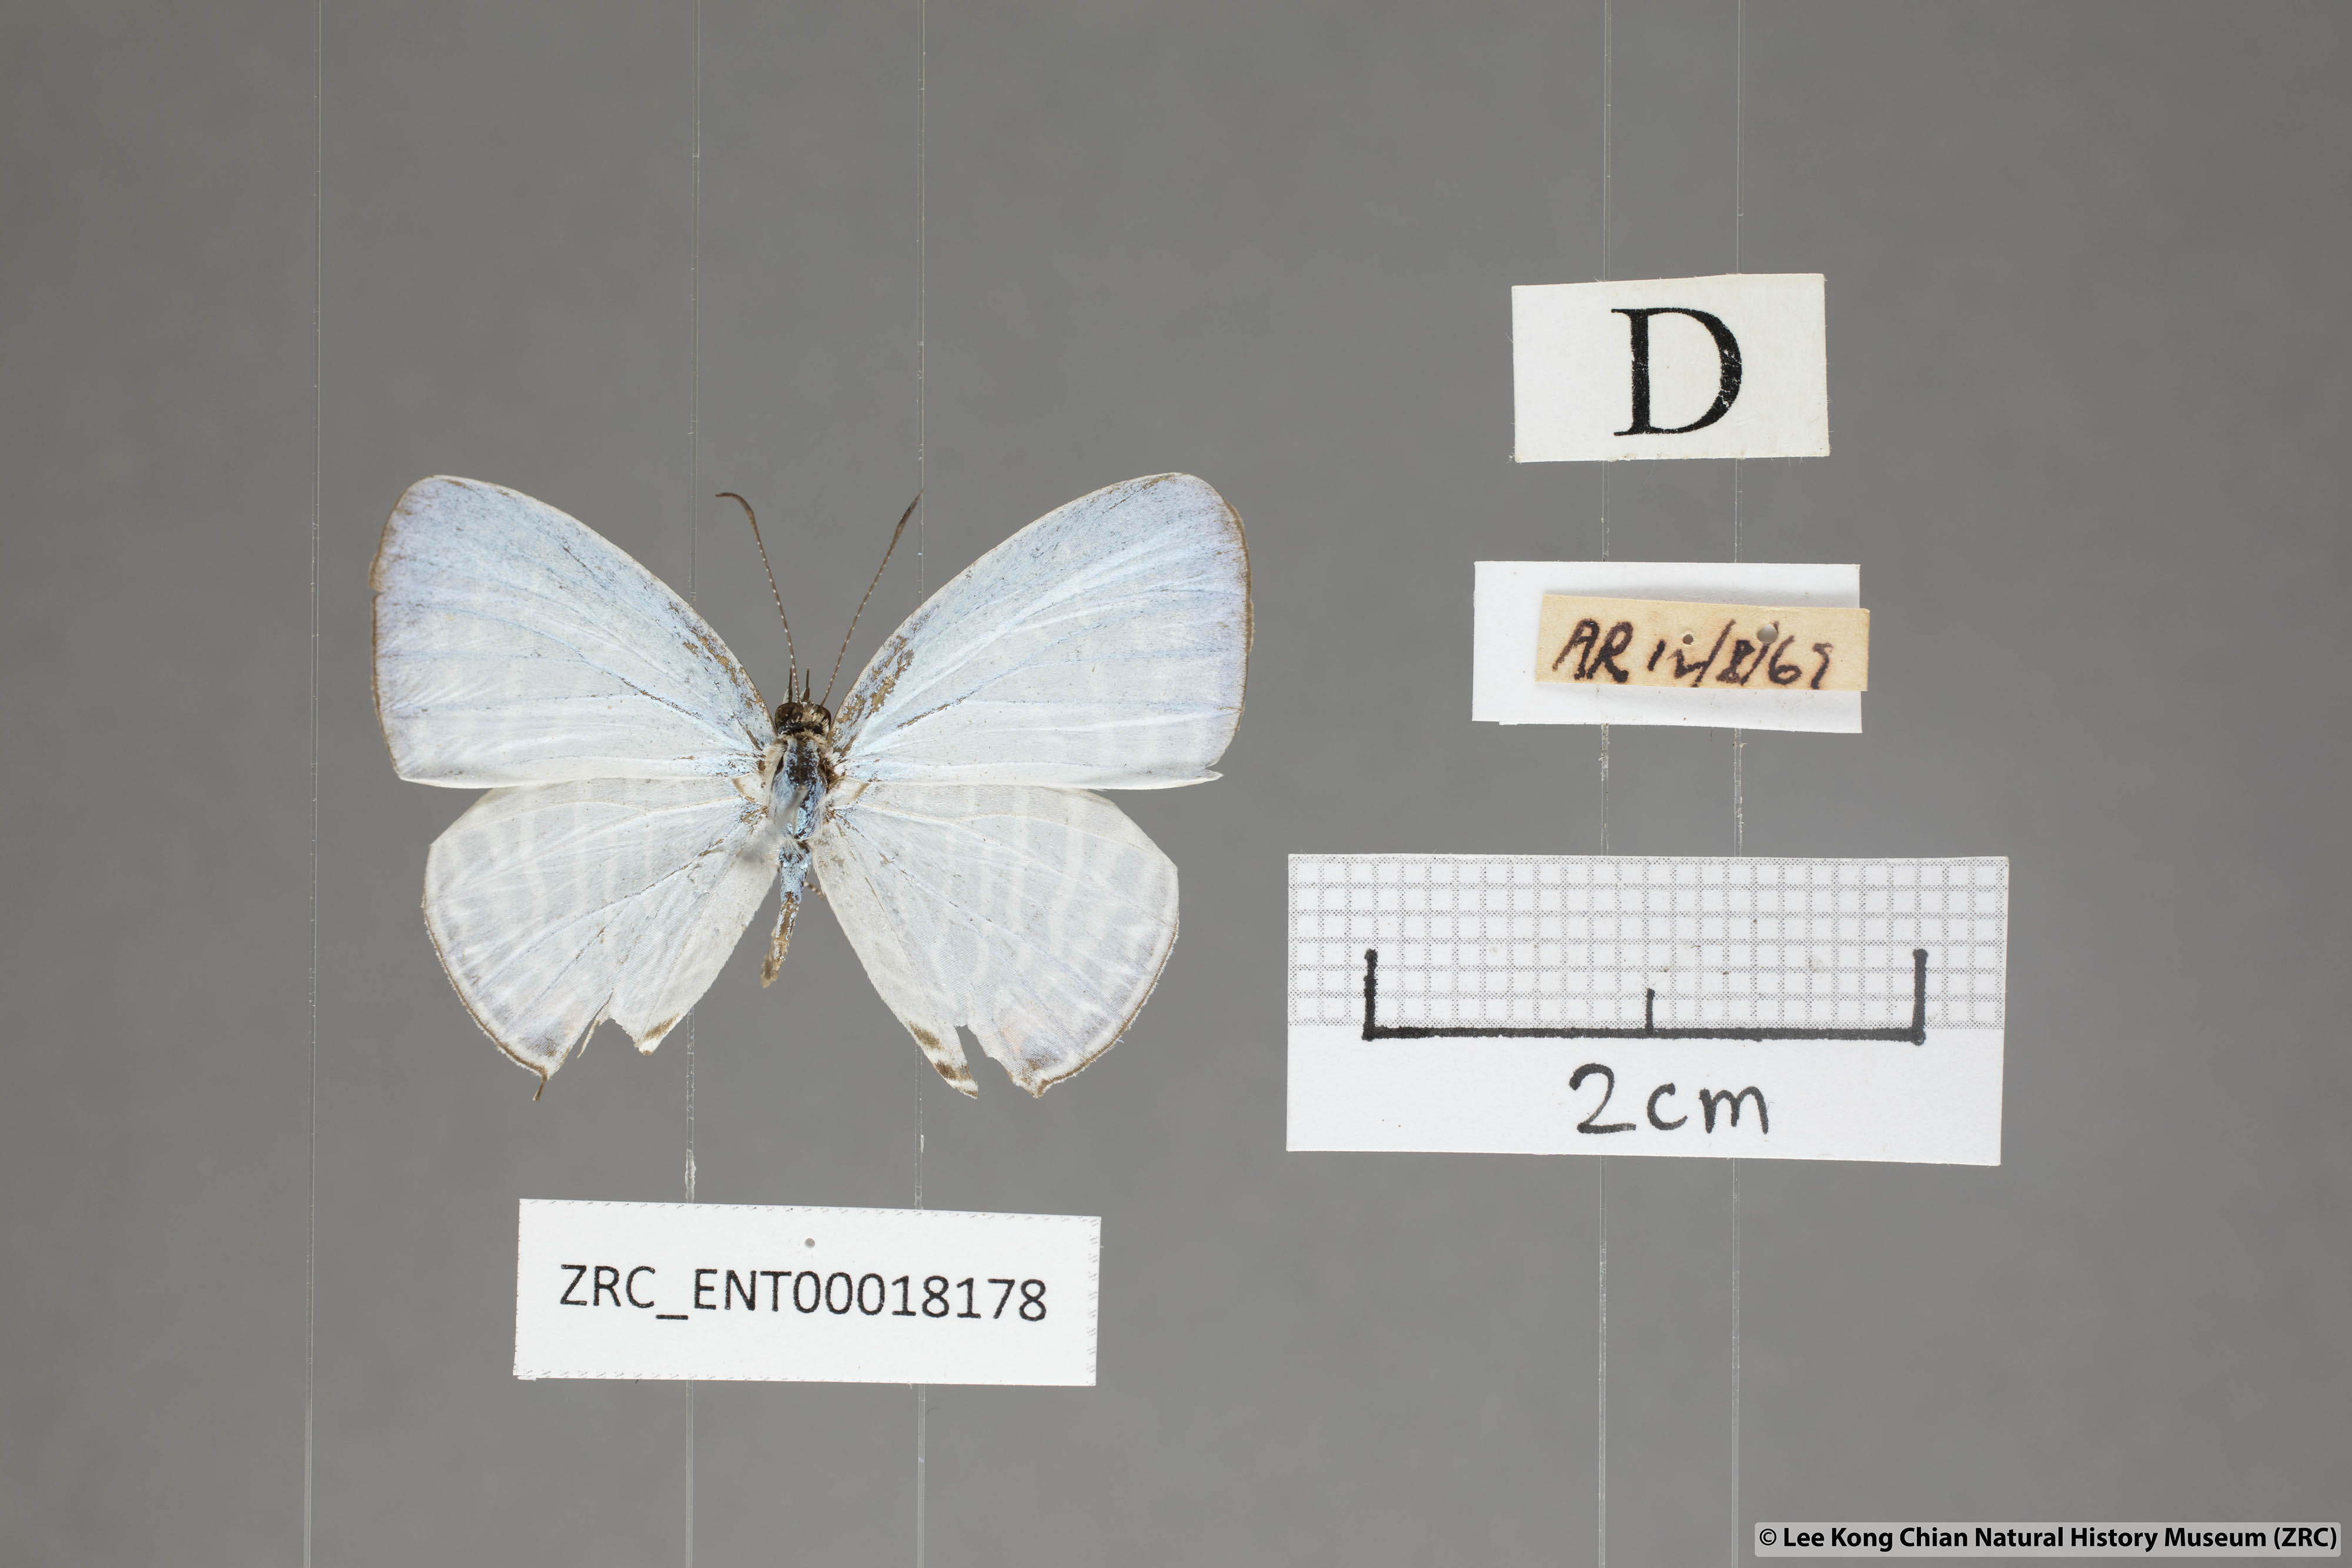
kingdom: Animalia
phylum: Arthropoda
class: Insecta
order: Lepidoptera
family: Lycaenidae
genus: Jamides
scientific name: Jamides pura
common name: White cerulean
